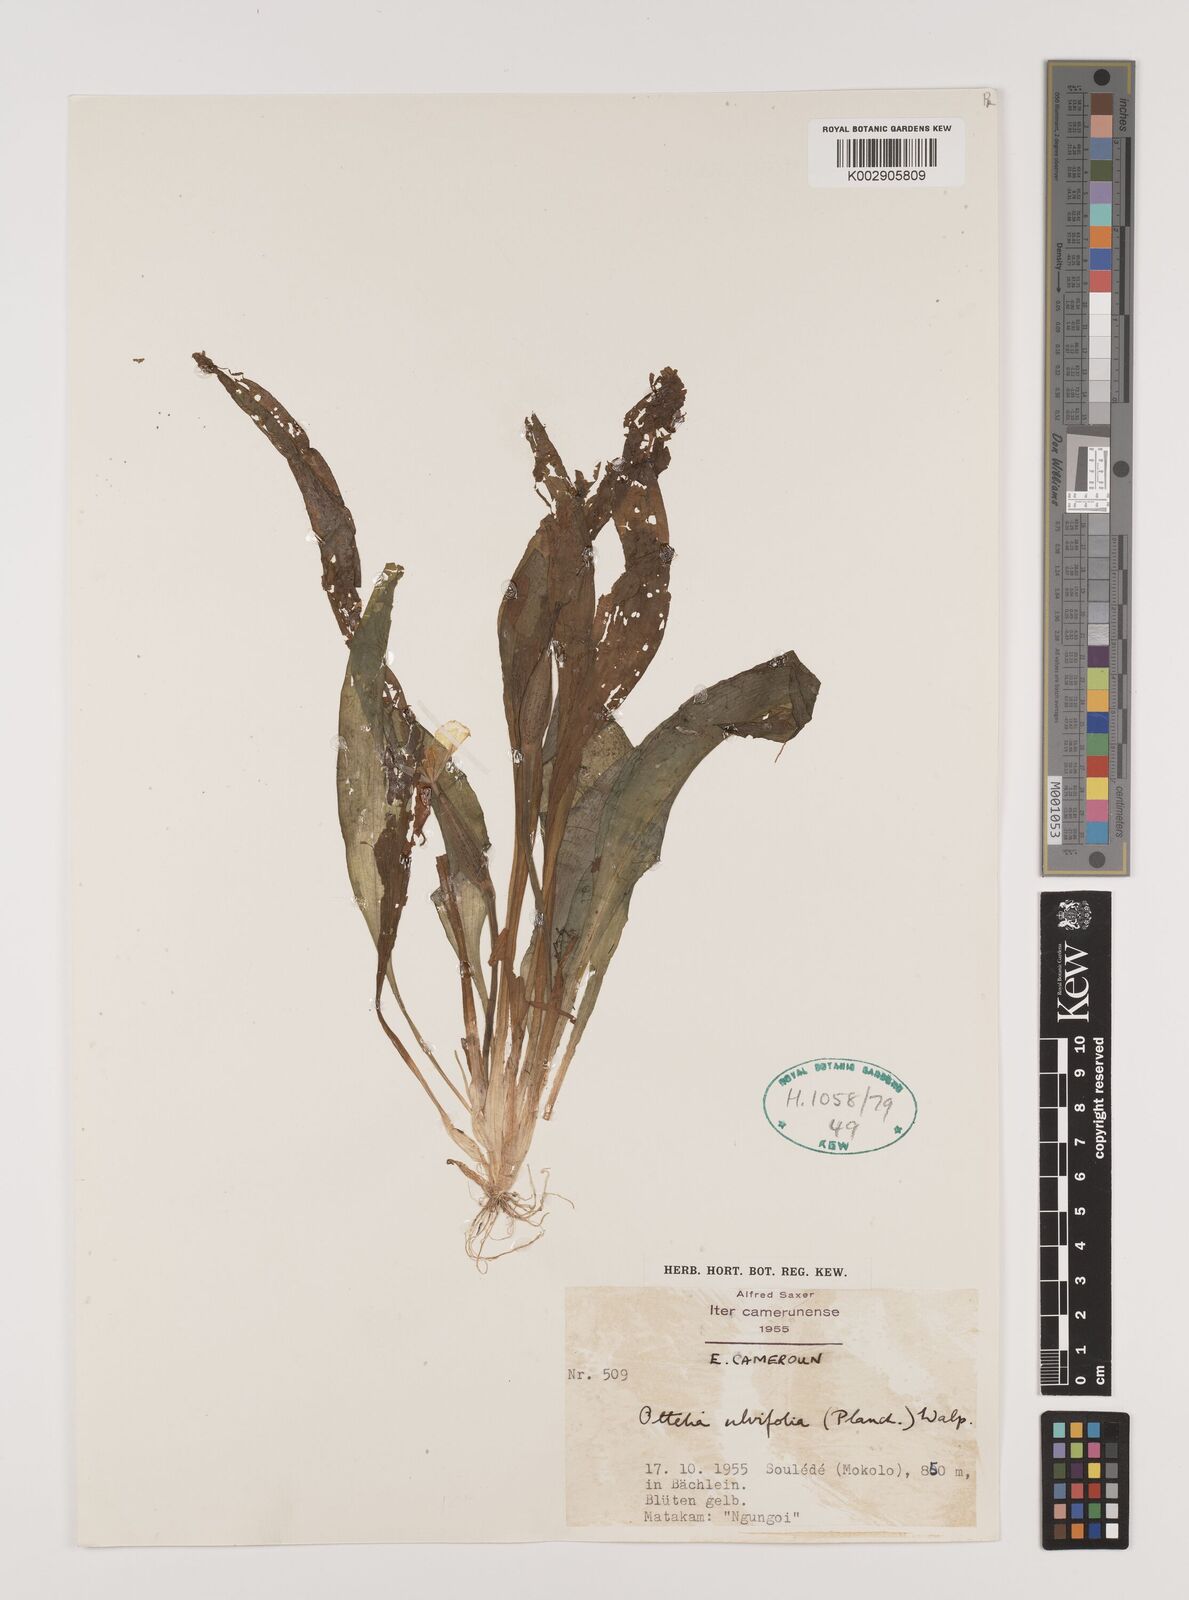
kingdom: Plantae
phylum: Tracheophyta
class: Liliopsida
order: Alismatales
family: Hydrocharitaceae
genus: Ottelia
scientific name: Ottelia ulvifolia
